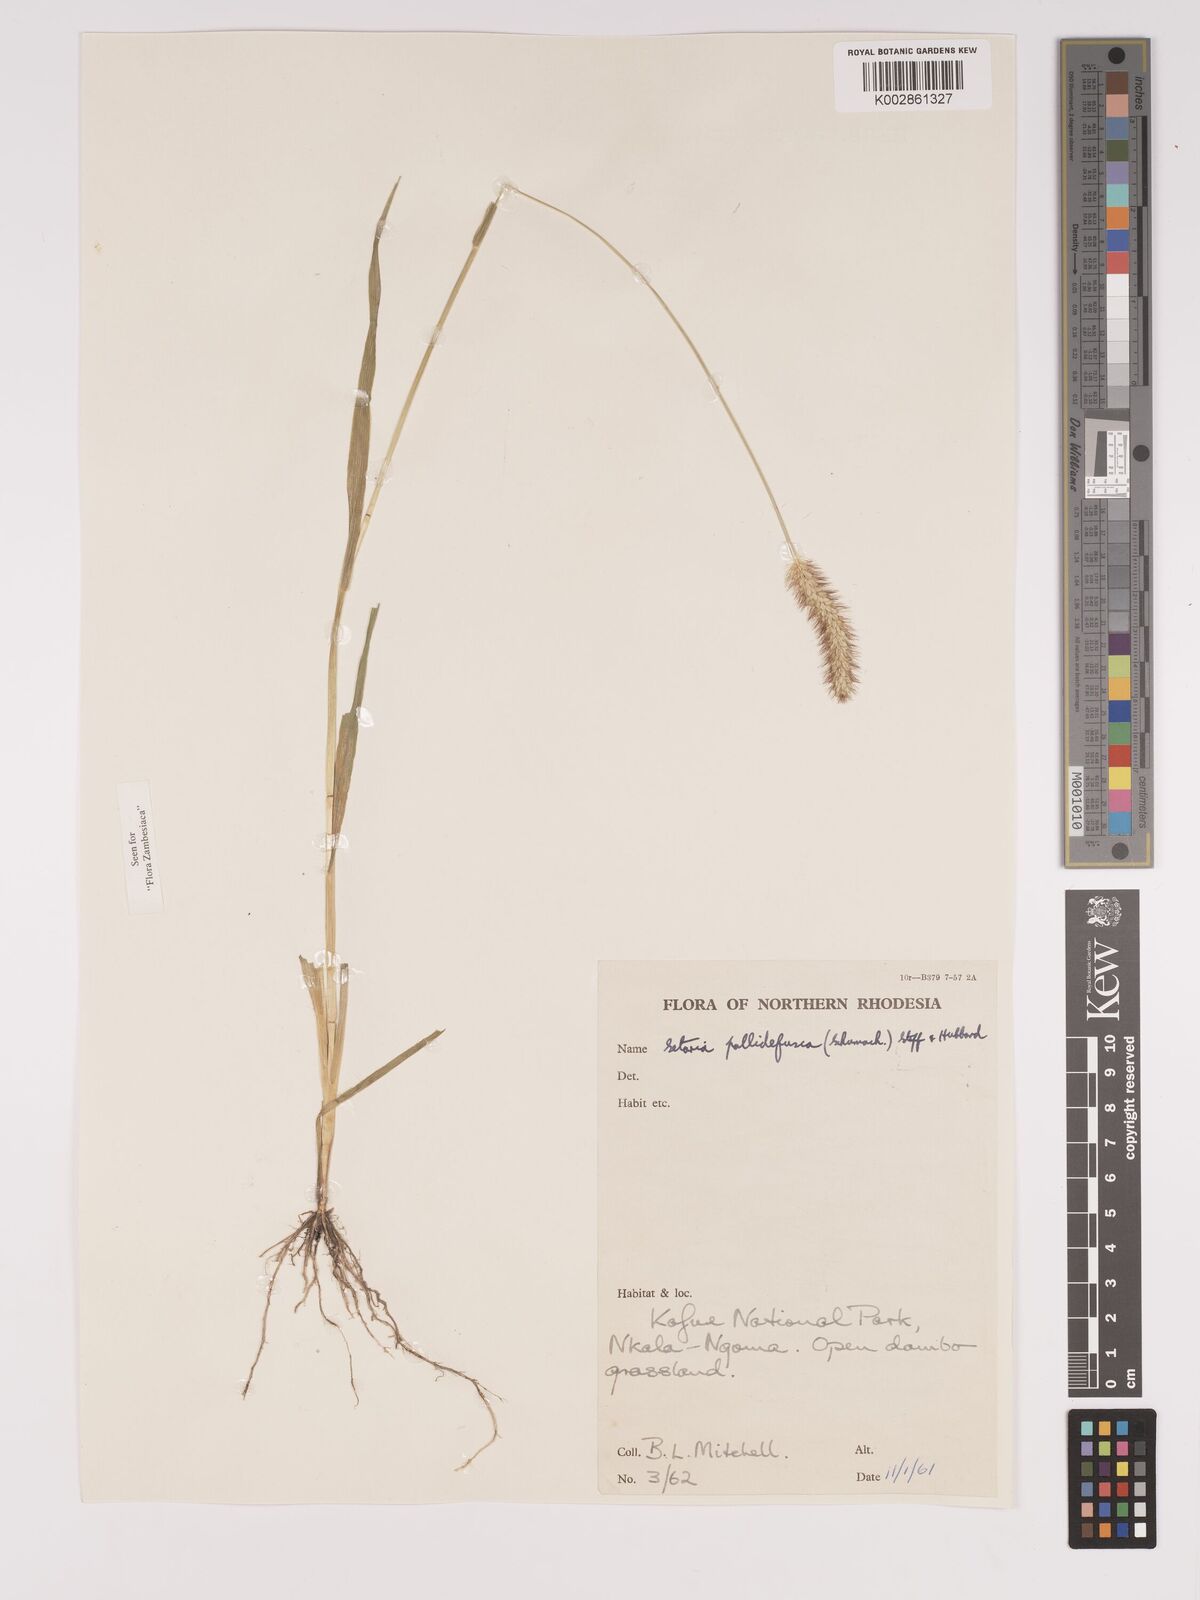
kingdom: Plantae
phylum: Tracheophyta
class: Liliopsida
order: Poales
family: Poaceae
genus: Setaria
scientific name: Setaria pumila
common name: Yellow bristle-grass
